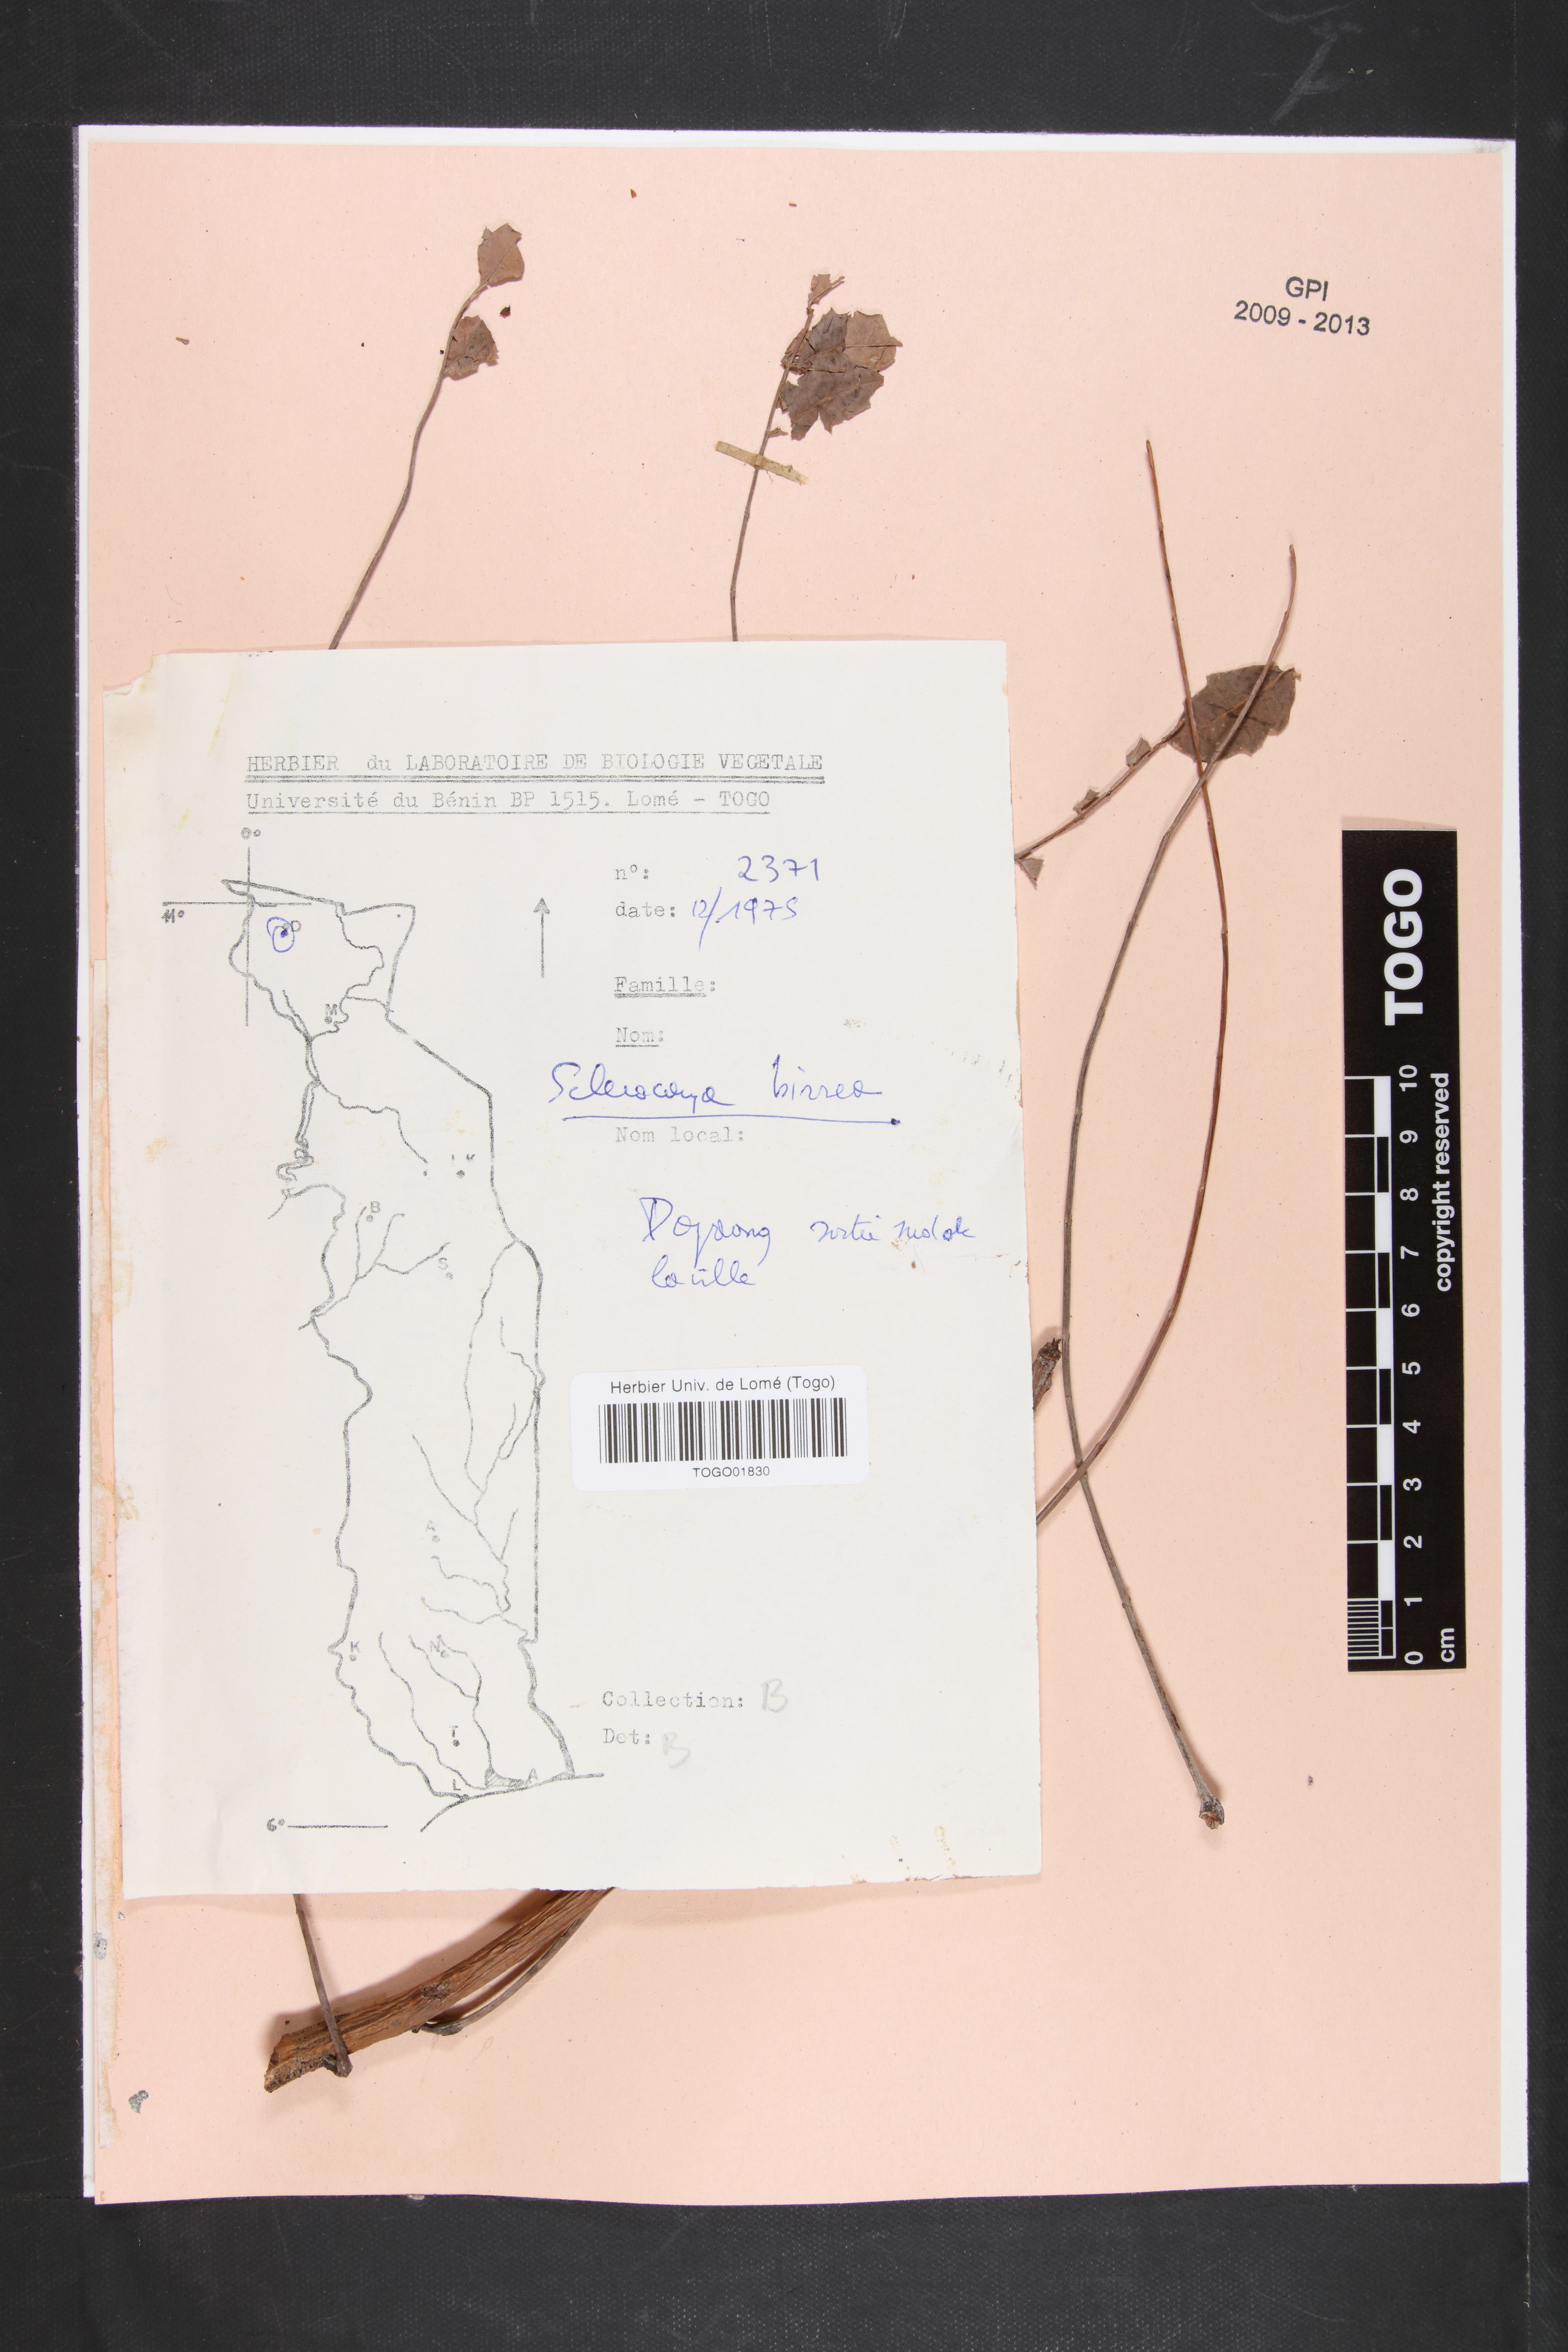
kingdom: Plantae
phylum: Tracheophyta
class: Magnoliopsida
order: Sapindales
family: Anacardiaceae
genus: Sclerocarya
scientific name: Sclerocarya birrea
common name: Marula
